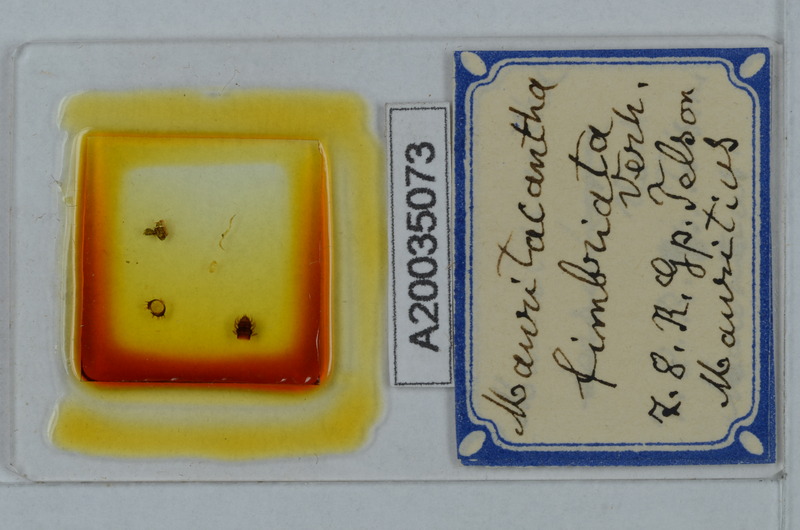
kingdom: Animalia
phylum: Arthropoda
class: Diplopoda
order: Polydesmida
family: Trichopolydesmidae
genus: Mauritacantha
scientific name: Mauritacantha fimbriata
